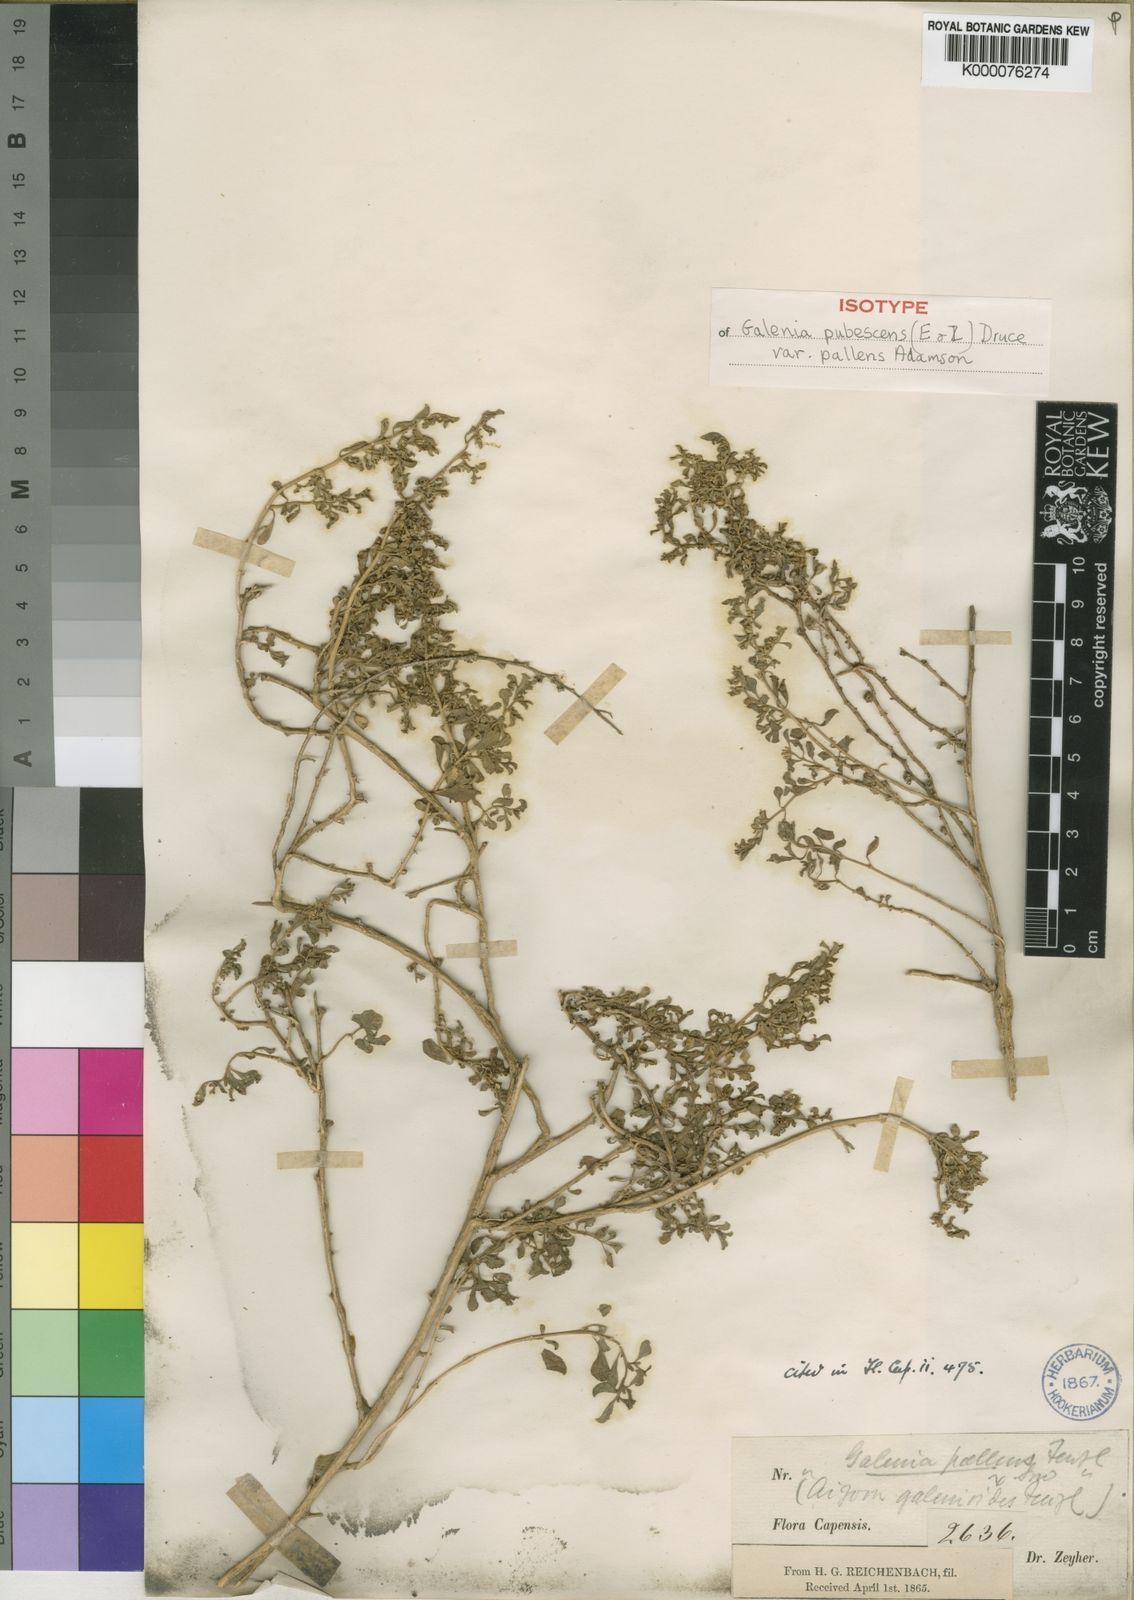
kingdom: Plantae
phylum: Tracheophyta
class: Magnoliopsida
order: Caryophyllales
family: Aizoaceae
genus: Aizoon
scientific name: Aizoon pubescens
